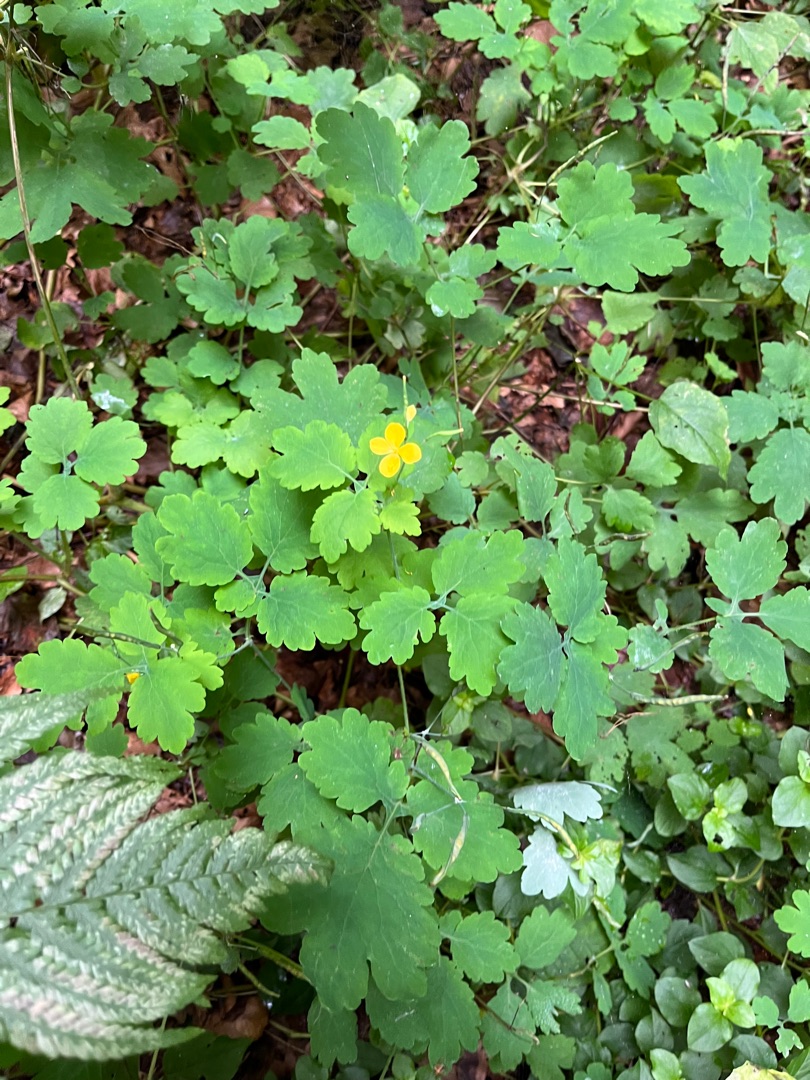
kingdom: Plantae
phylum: Tracheophyta
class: Magnoliopsida
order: Ranunculales
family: Papaveraceae
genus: Chelidonium
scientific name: Chelidonium majus
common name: Svaleurt
